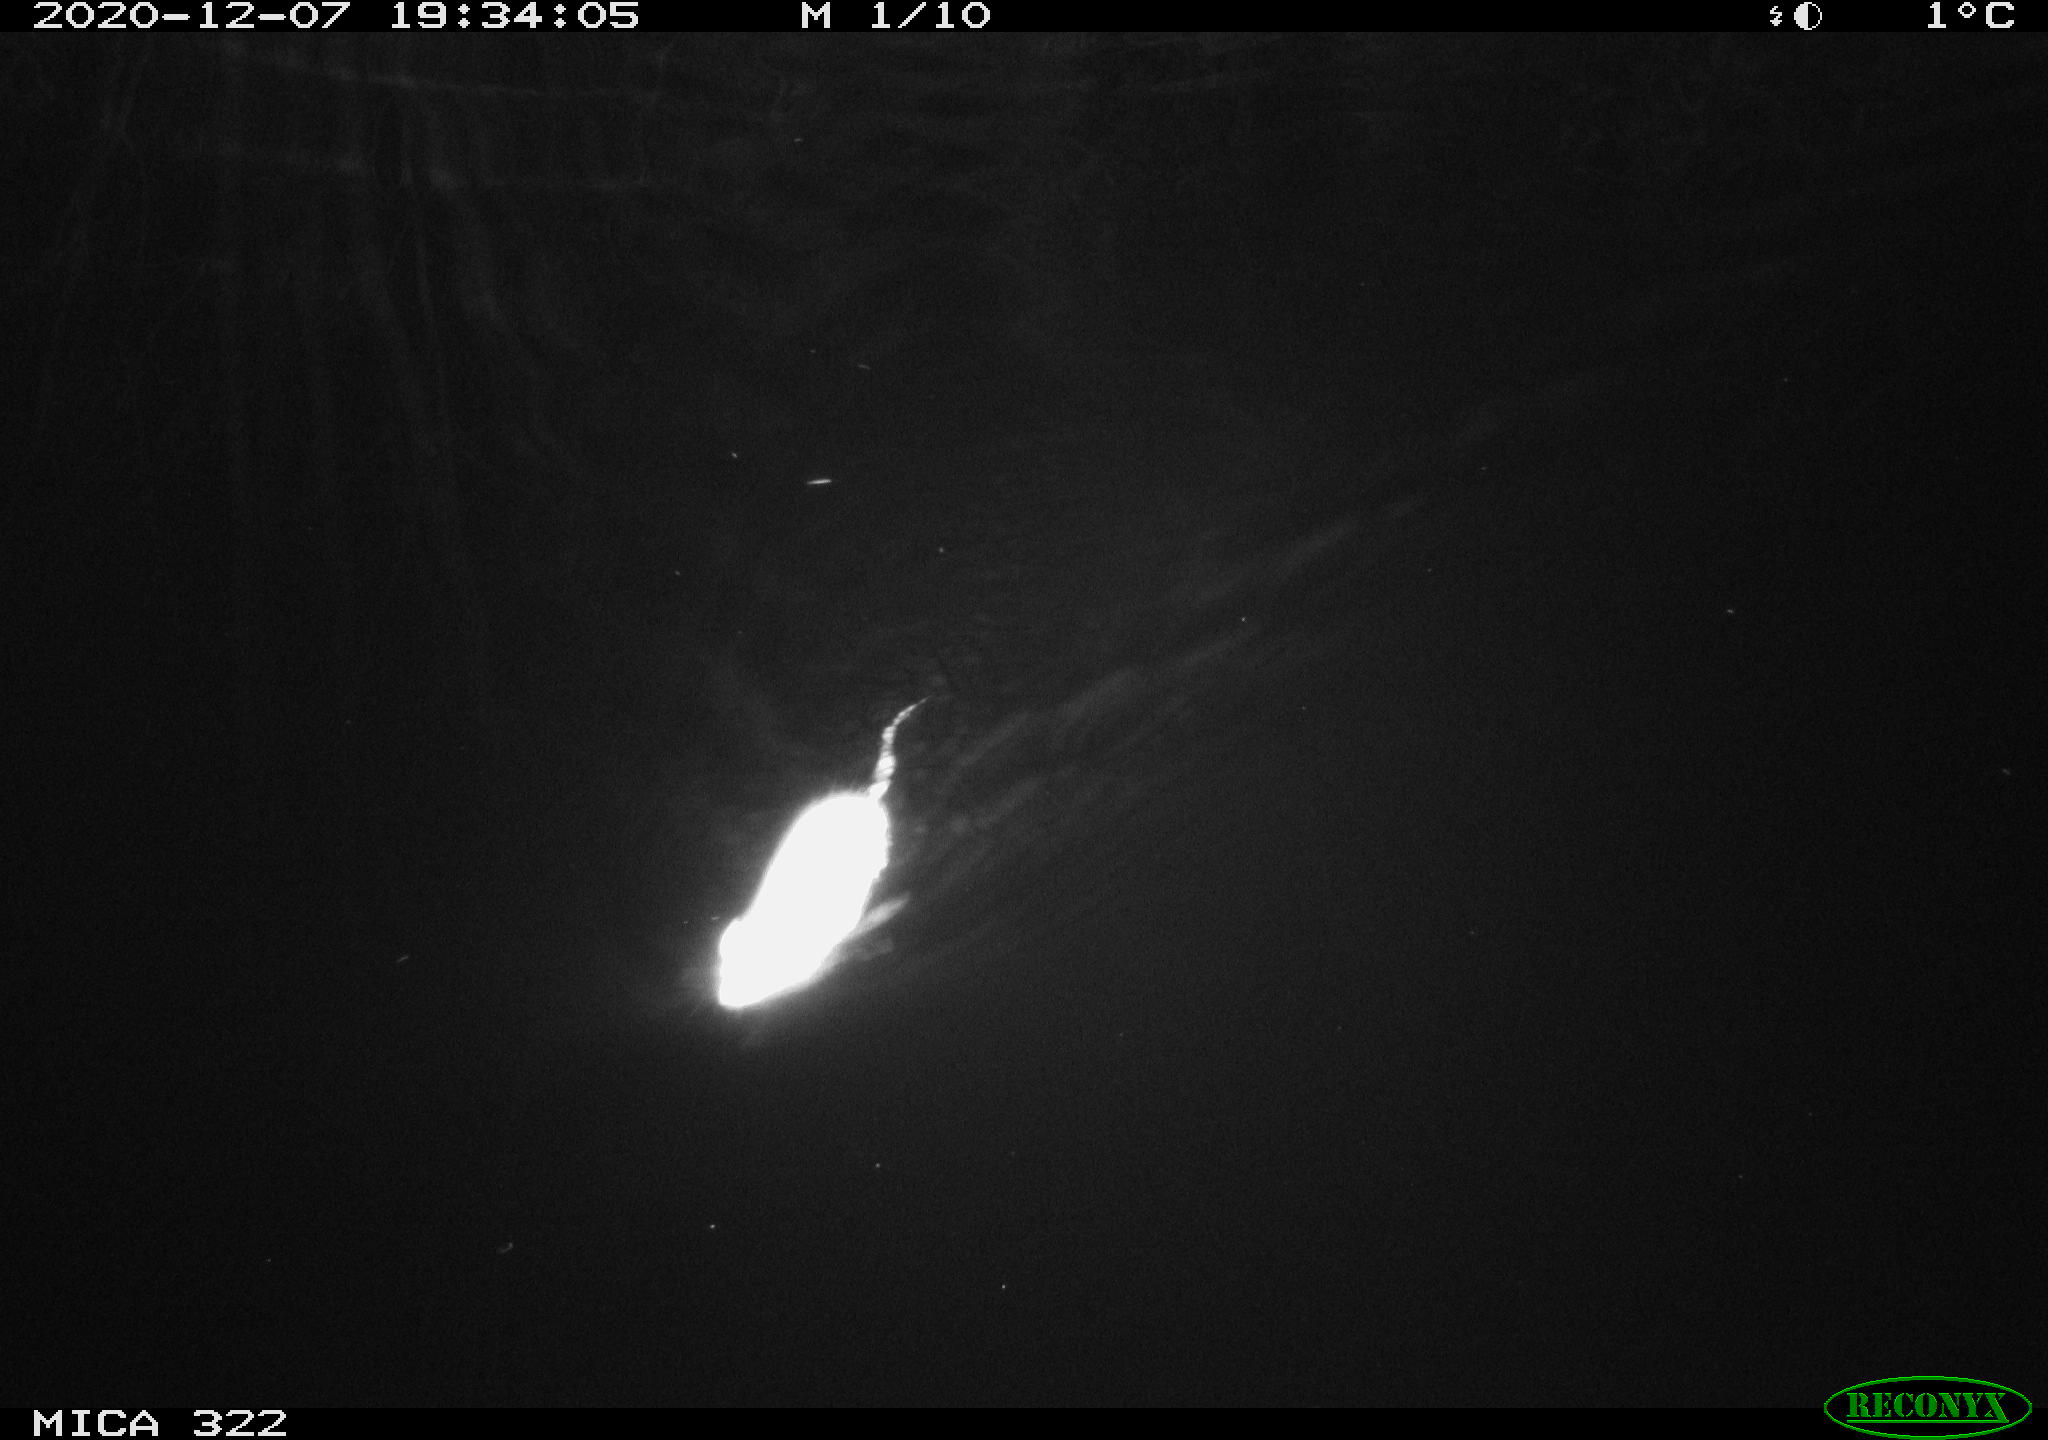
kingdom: Animalia
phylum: Chordata
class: Mammalia
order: Rodentia
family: Muridae
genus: Rattus
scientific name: Rattus norvegicus
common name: Brown rat
